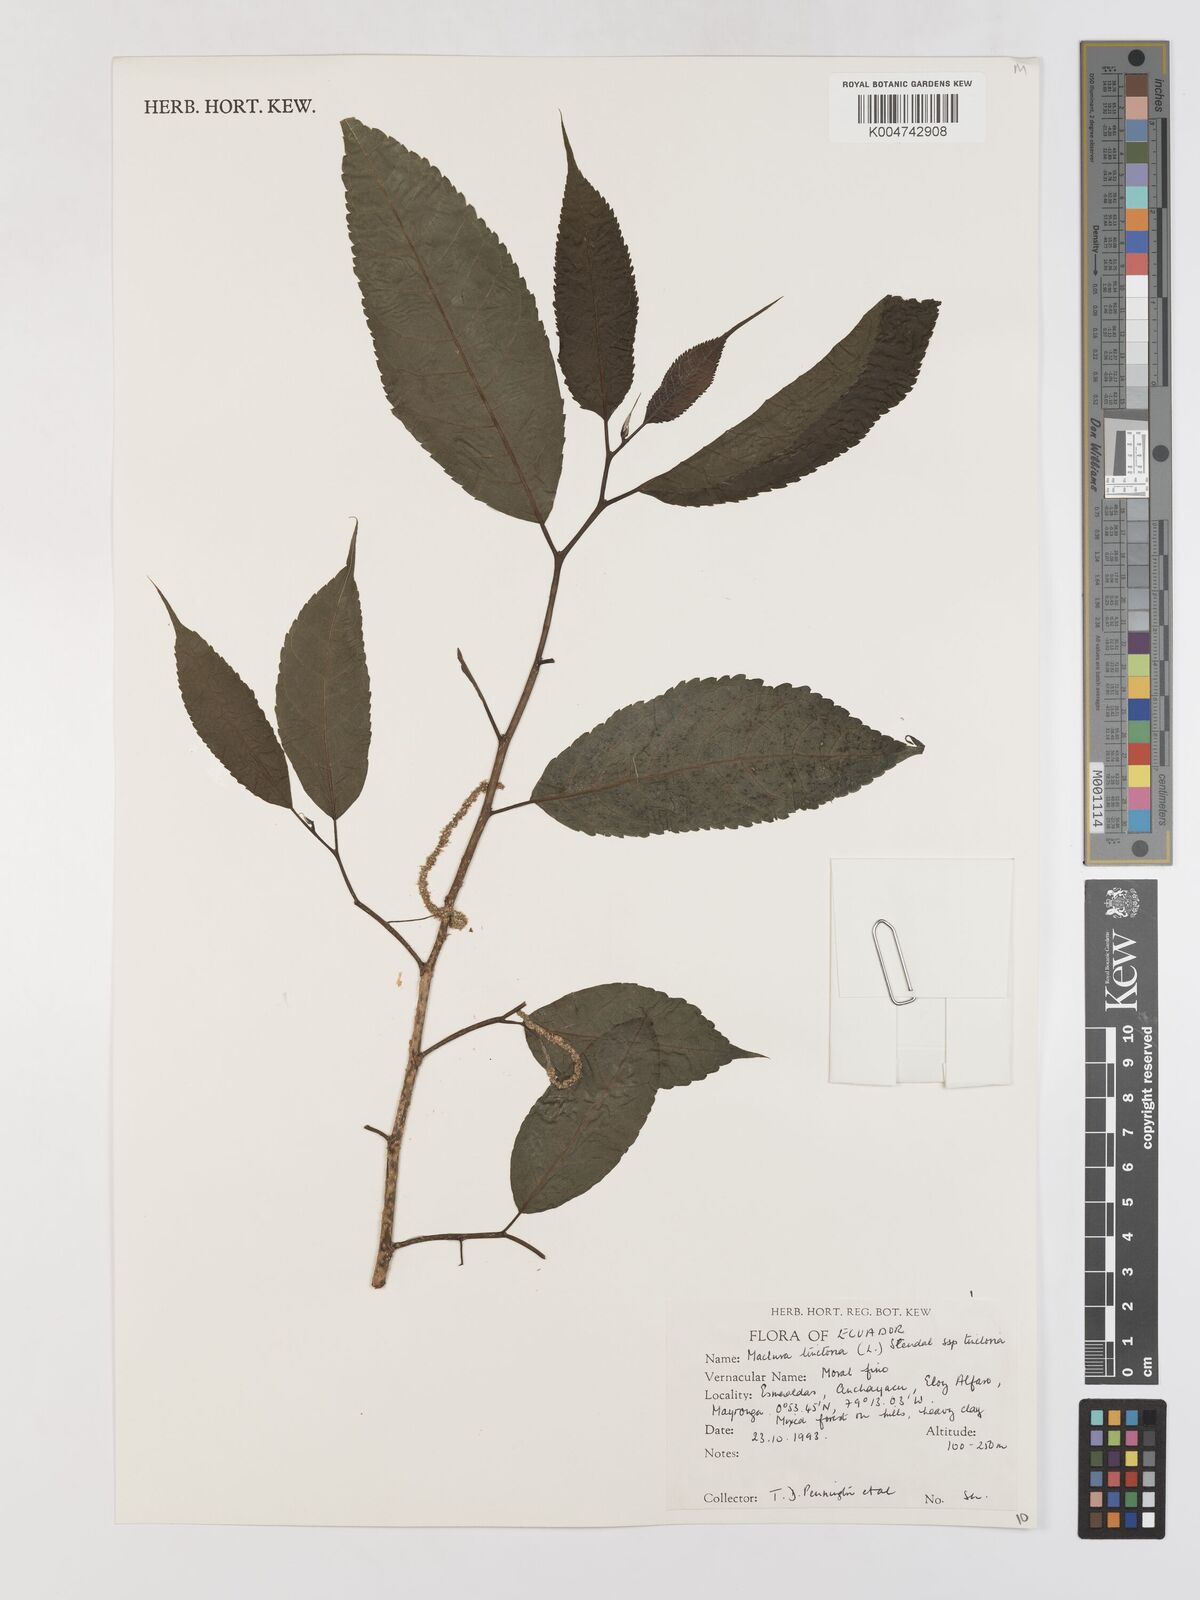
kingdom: Plantae
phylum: Tracheophyta
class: Magnoliopsida
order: Rosales
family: Moraceae
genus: Maclura
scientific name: Maclura tinctoria
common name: Old fustic
